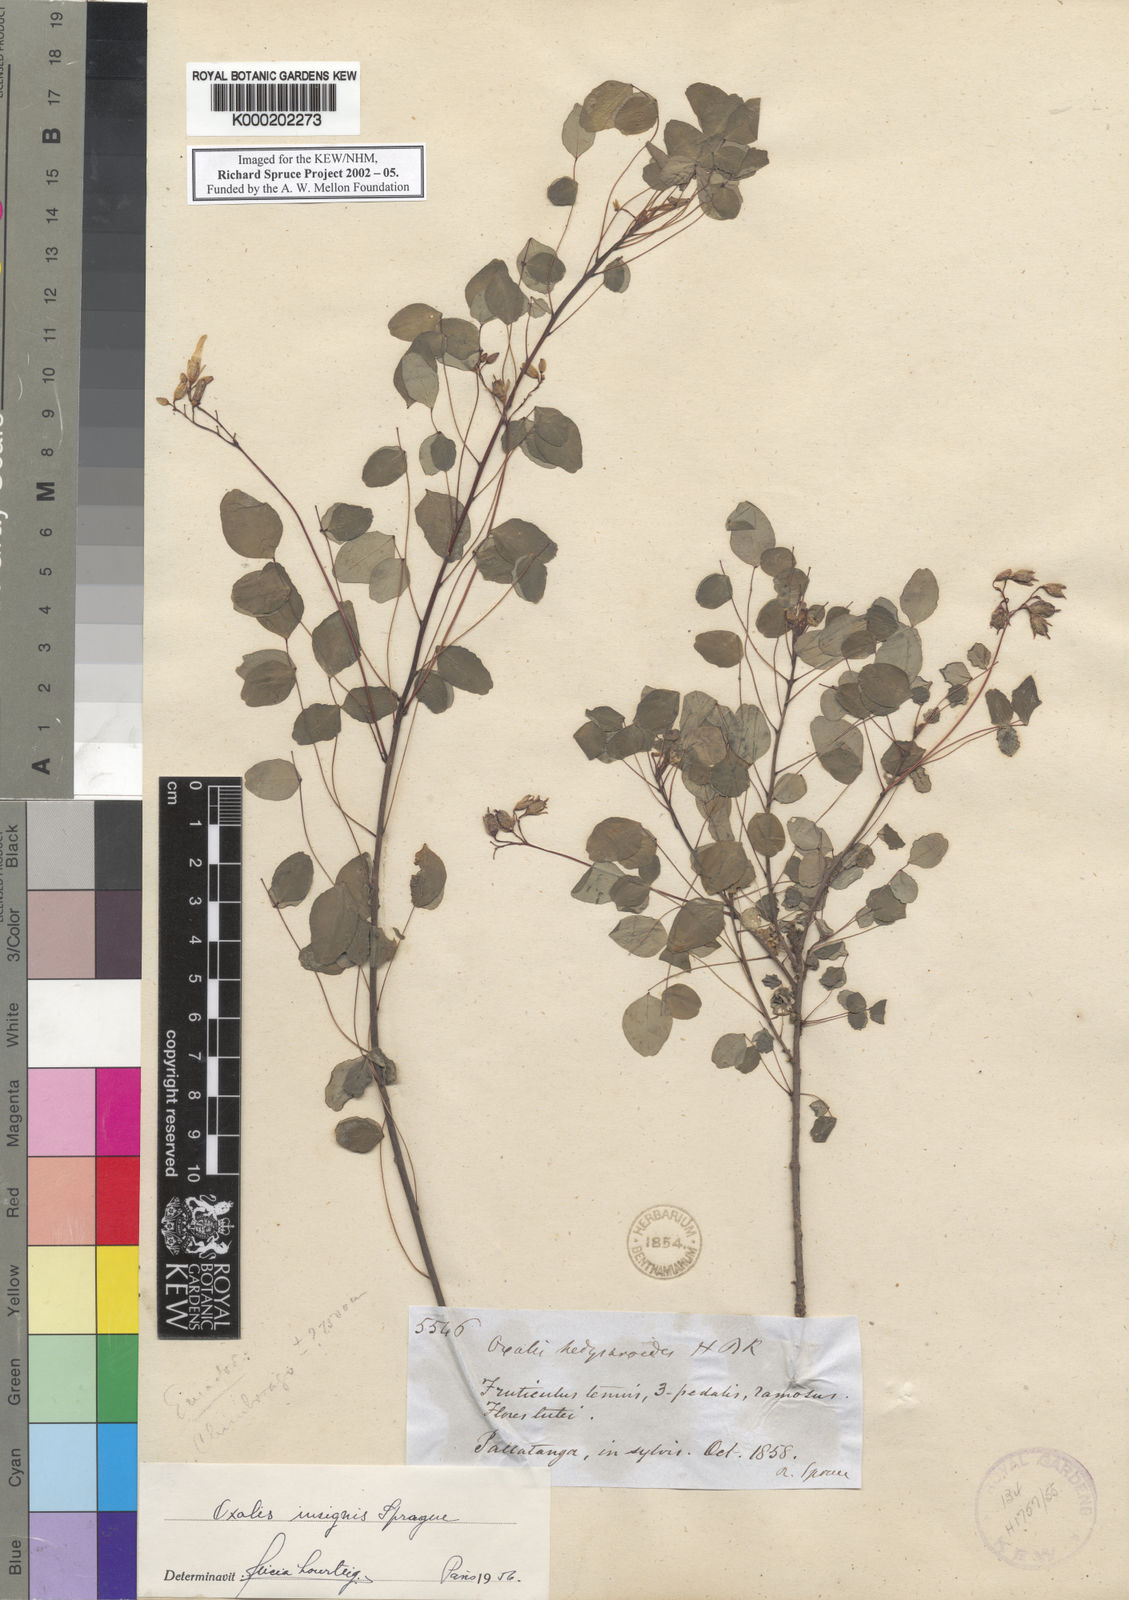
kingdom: Plantae
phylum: Tracheophyta
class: Magnoliopsida
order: Oxalidales
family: Oxalidaceae
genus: Oxalis
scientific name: Oxalis hedysaroides
